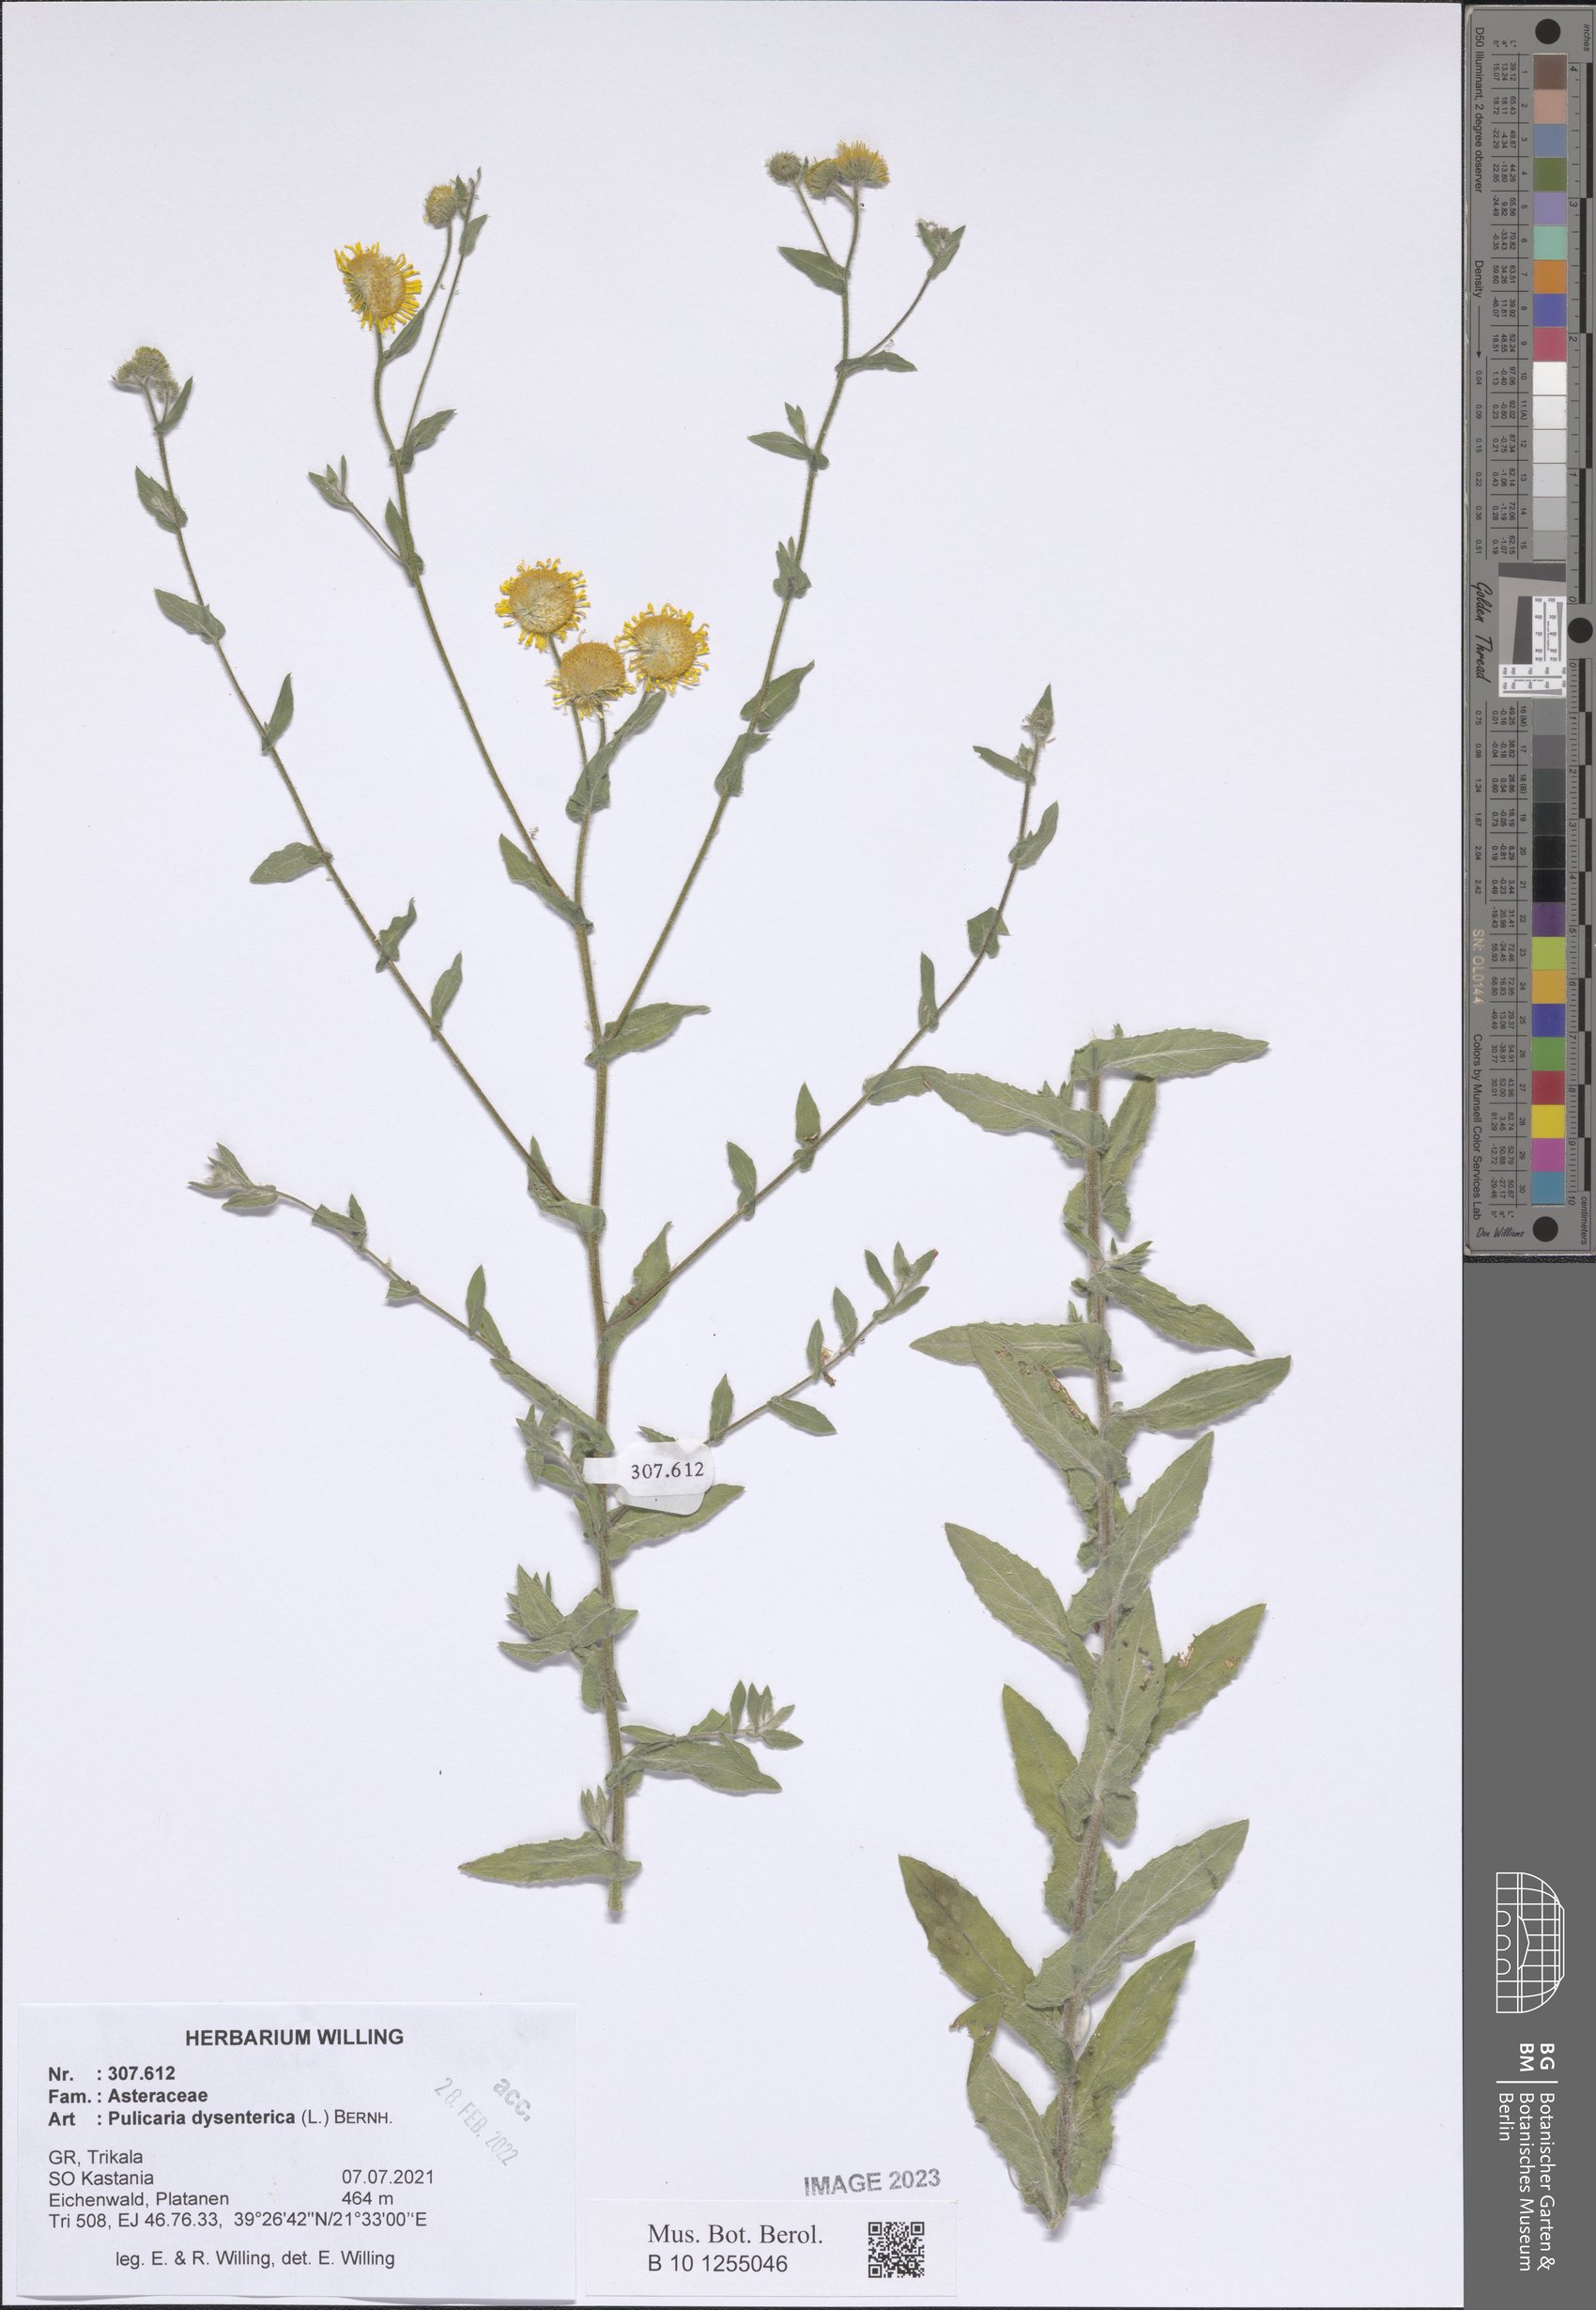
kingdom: Plantae
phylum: Tracheophyta
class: Magnoliopsida
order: Asterales
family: Asteraceae
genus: Pulicaria
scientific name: Pulicaria dysenterica
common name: Common fleabane
